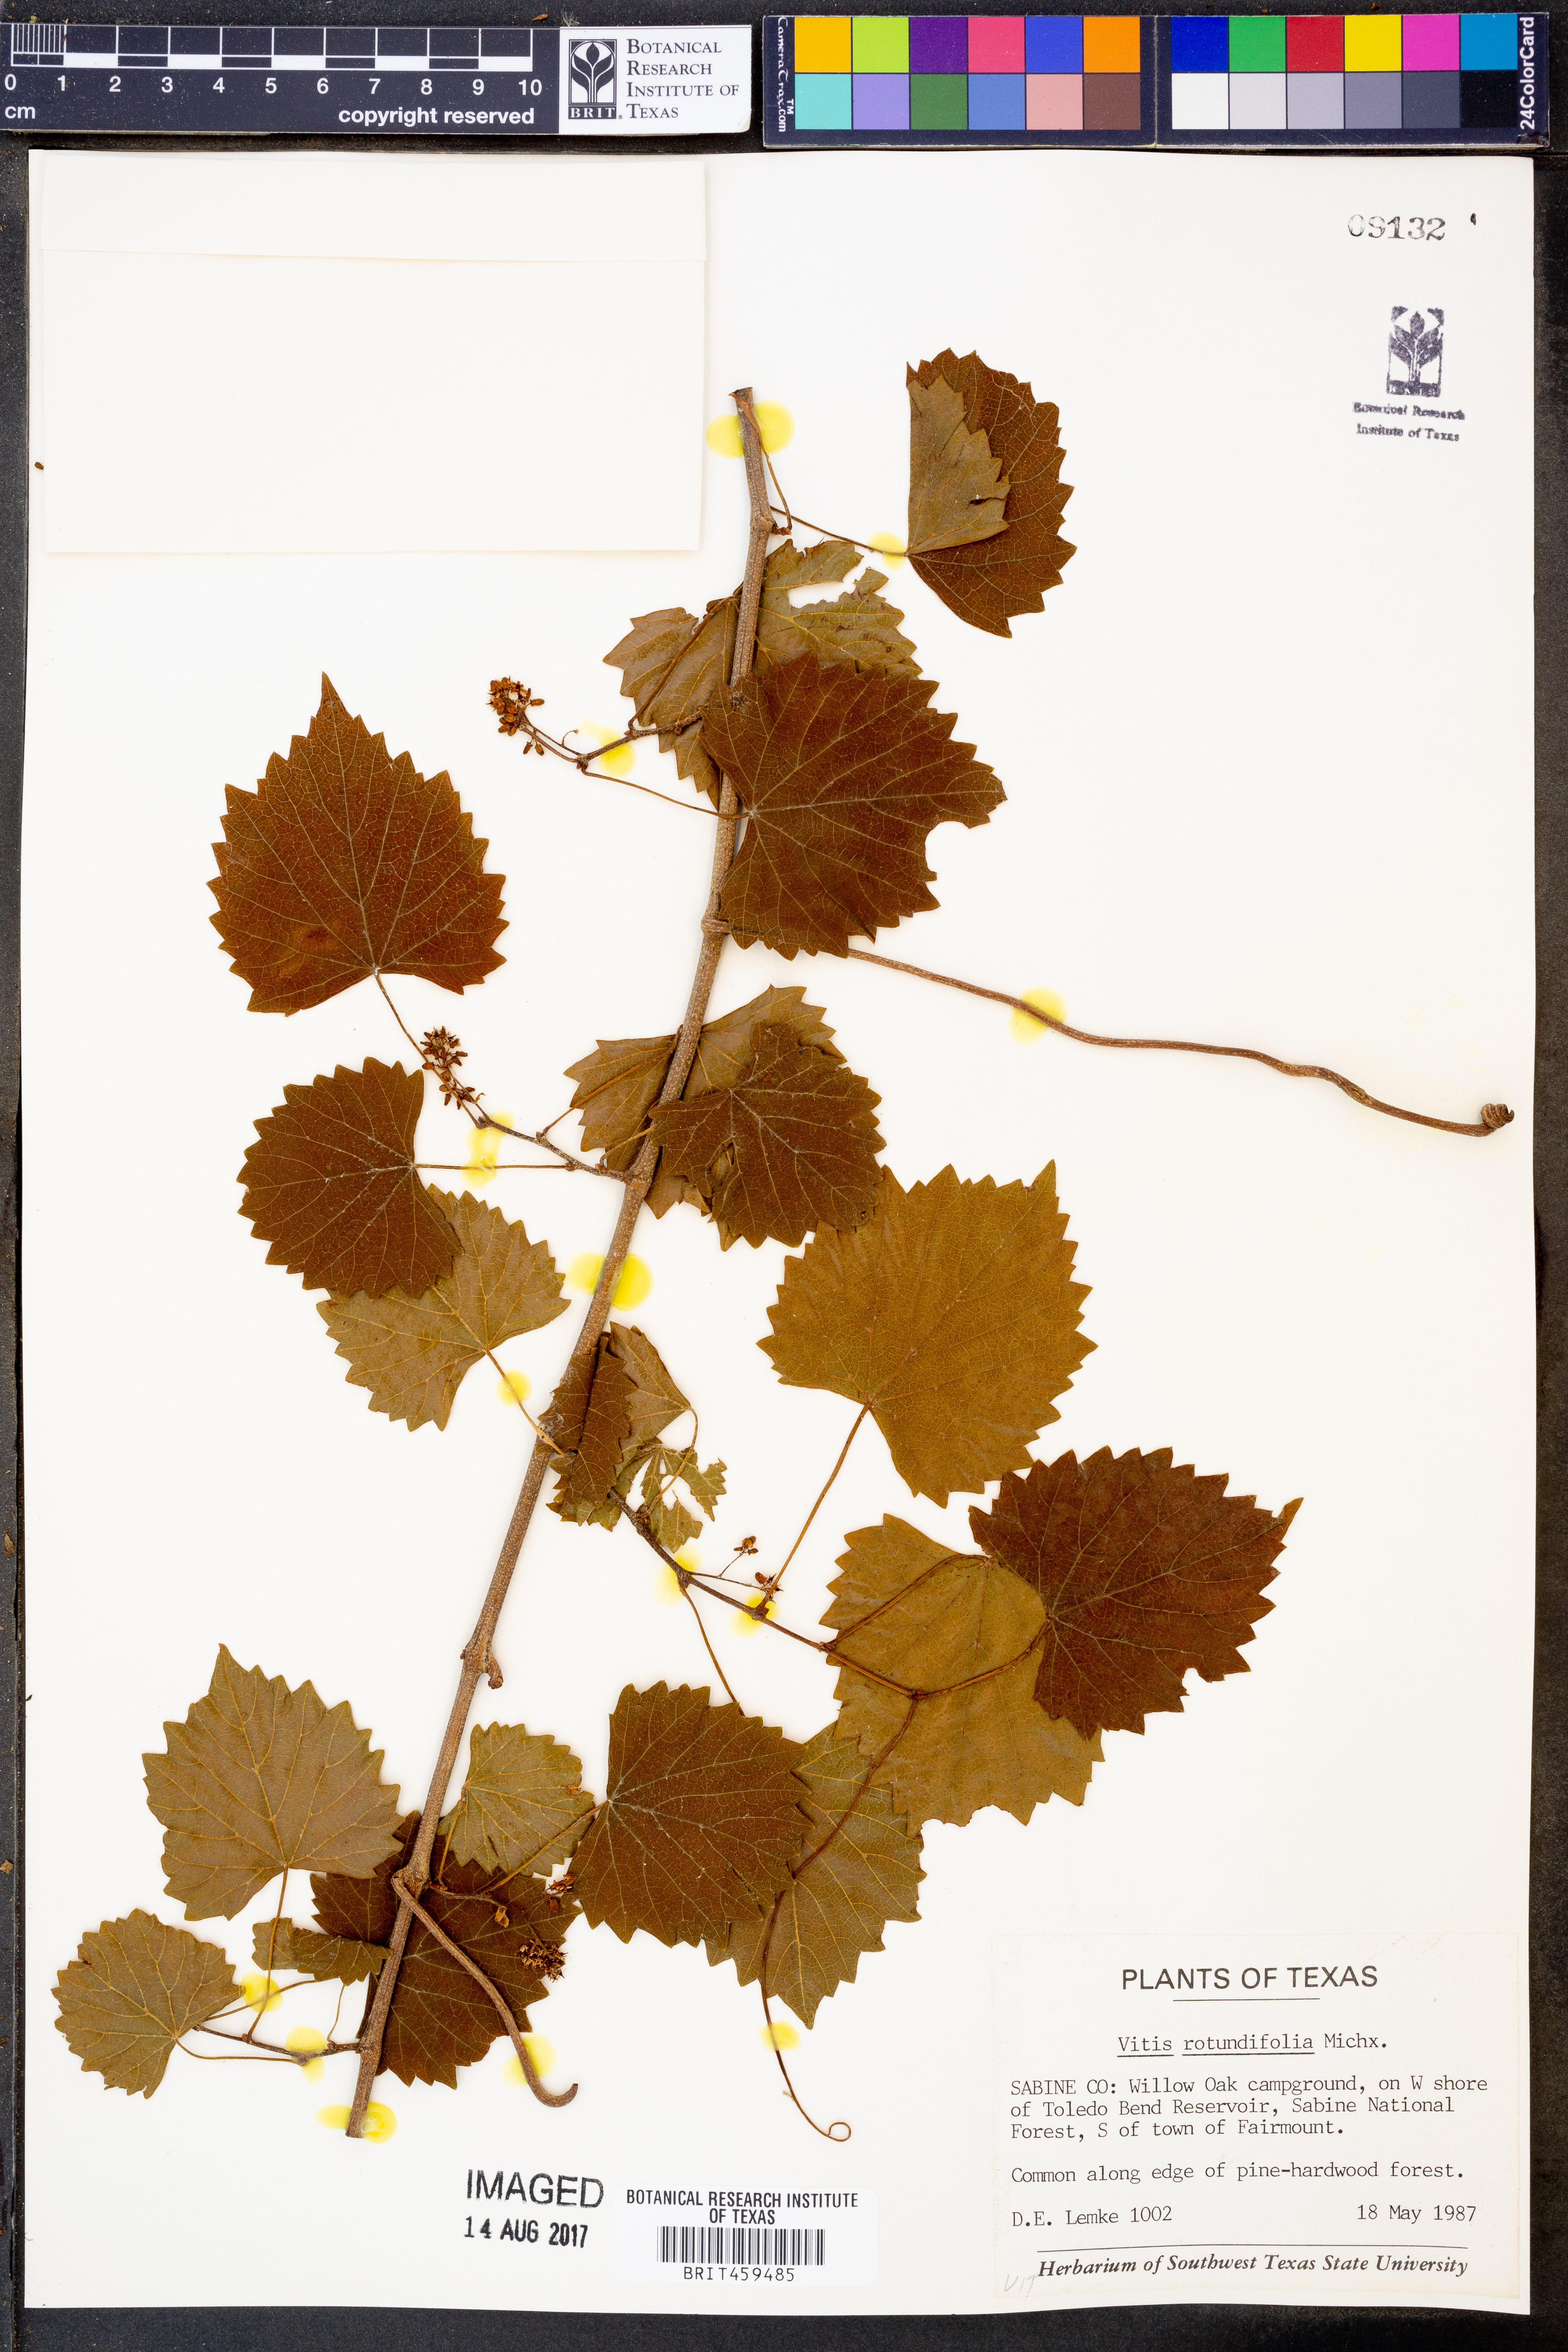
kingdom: Plantae
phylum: Tracheophyta
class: Magnoliopsida
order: Vitales
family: Vitaceae
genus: Vitis
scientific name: Vitis rotundifolia
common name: Muscadine grape
